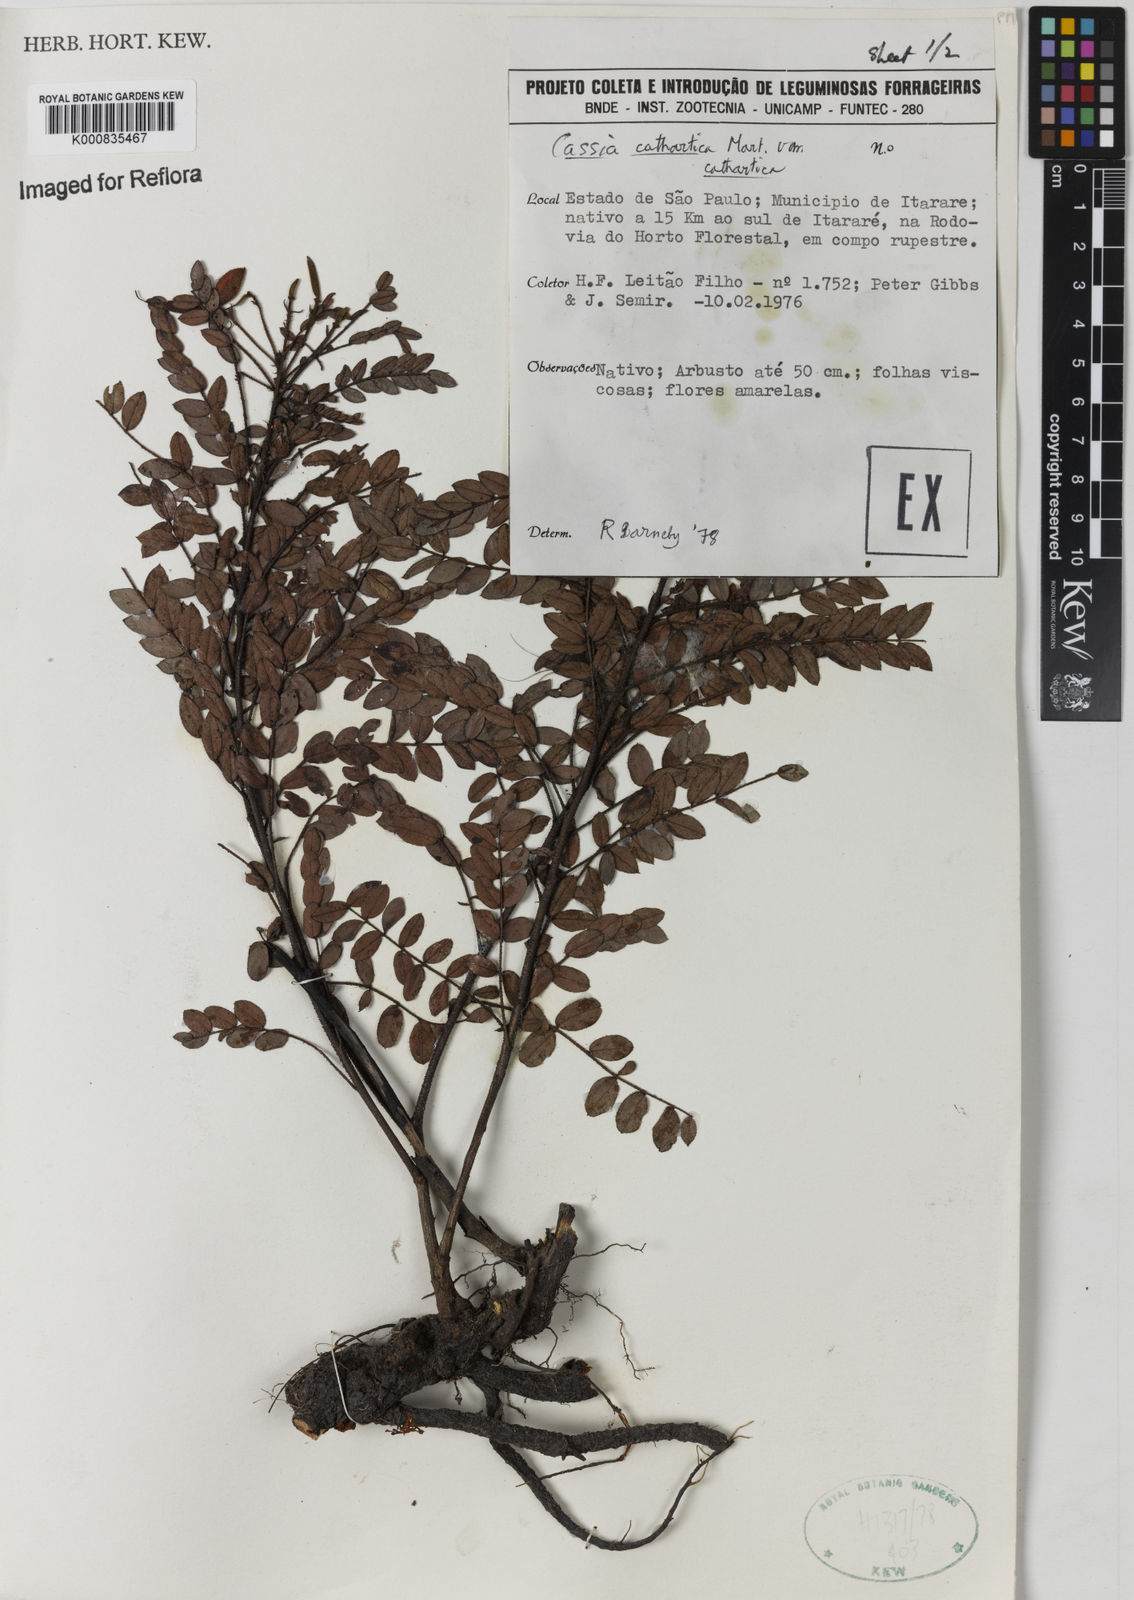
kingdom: Plantae
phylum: Tracheophyta
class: Magnoliopsida
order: Fabales
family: Fabaceae
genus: Chamaecrista
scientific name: Chamaecrista cathartica
